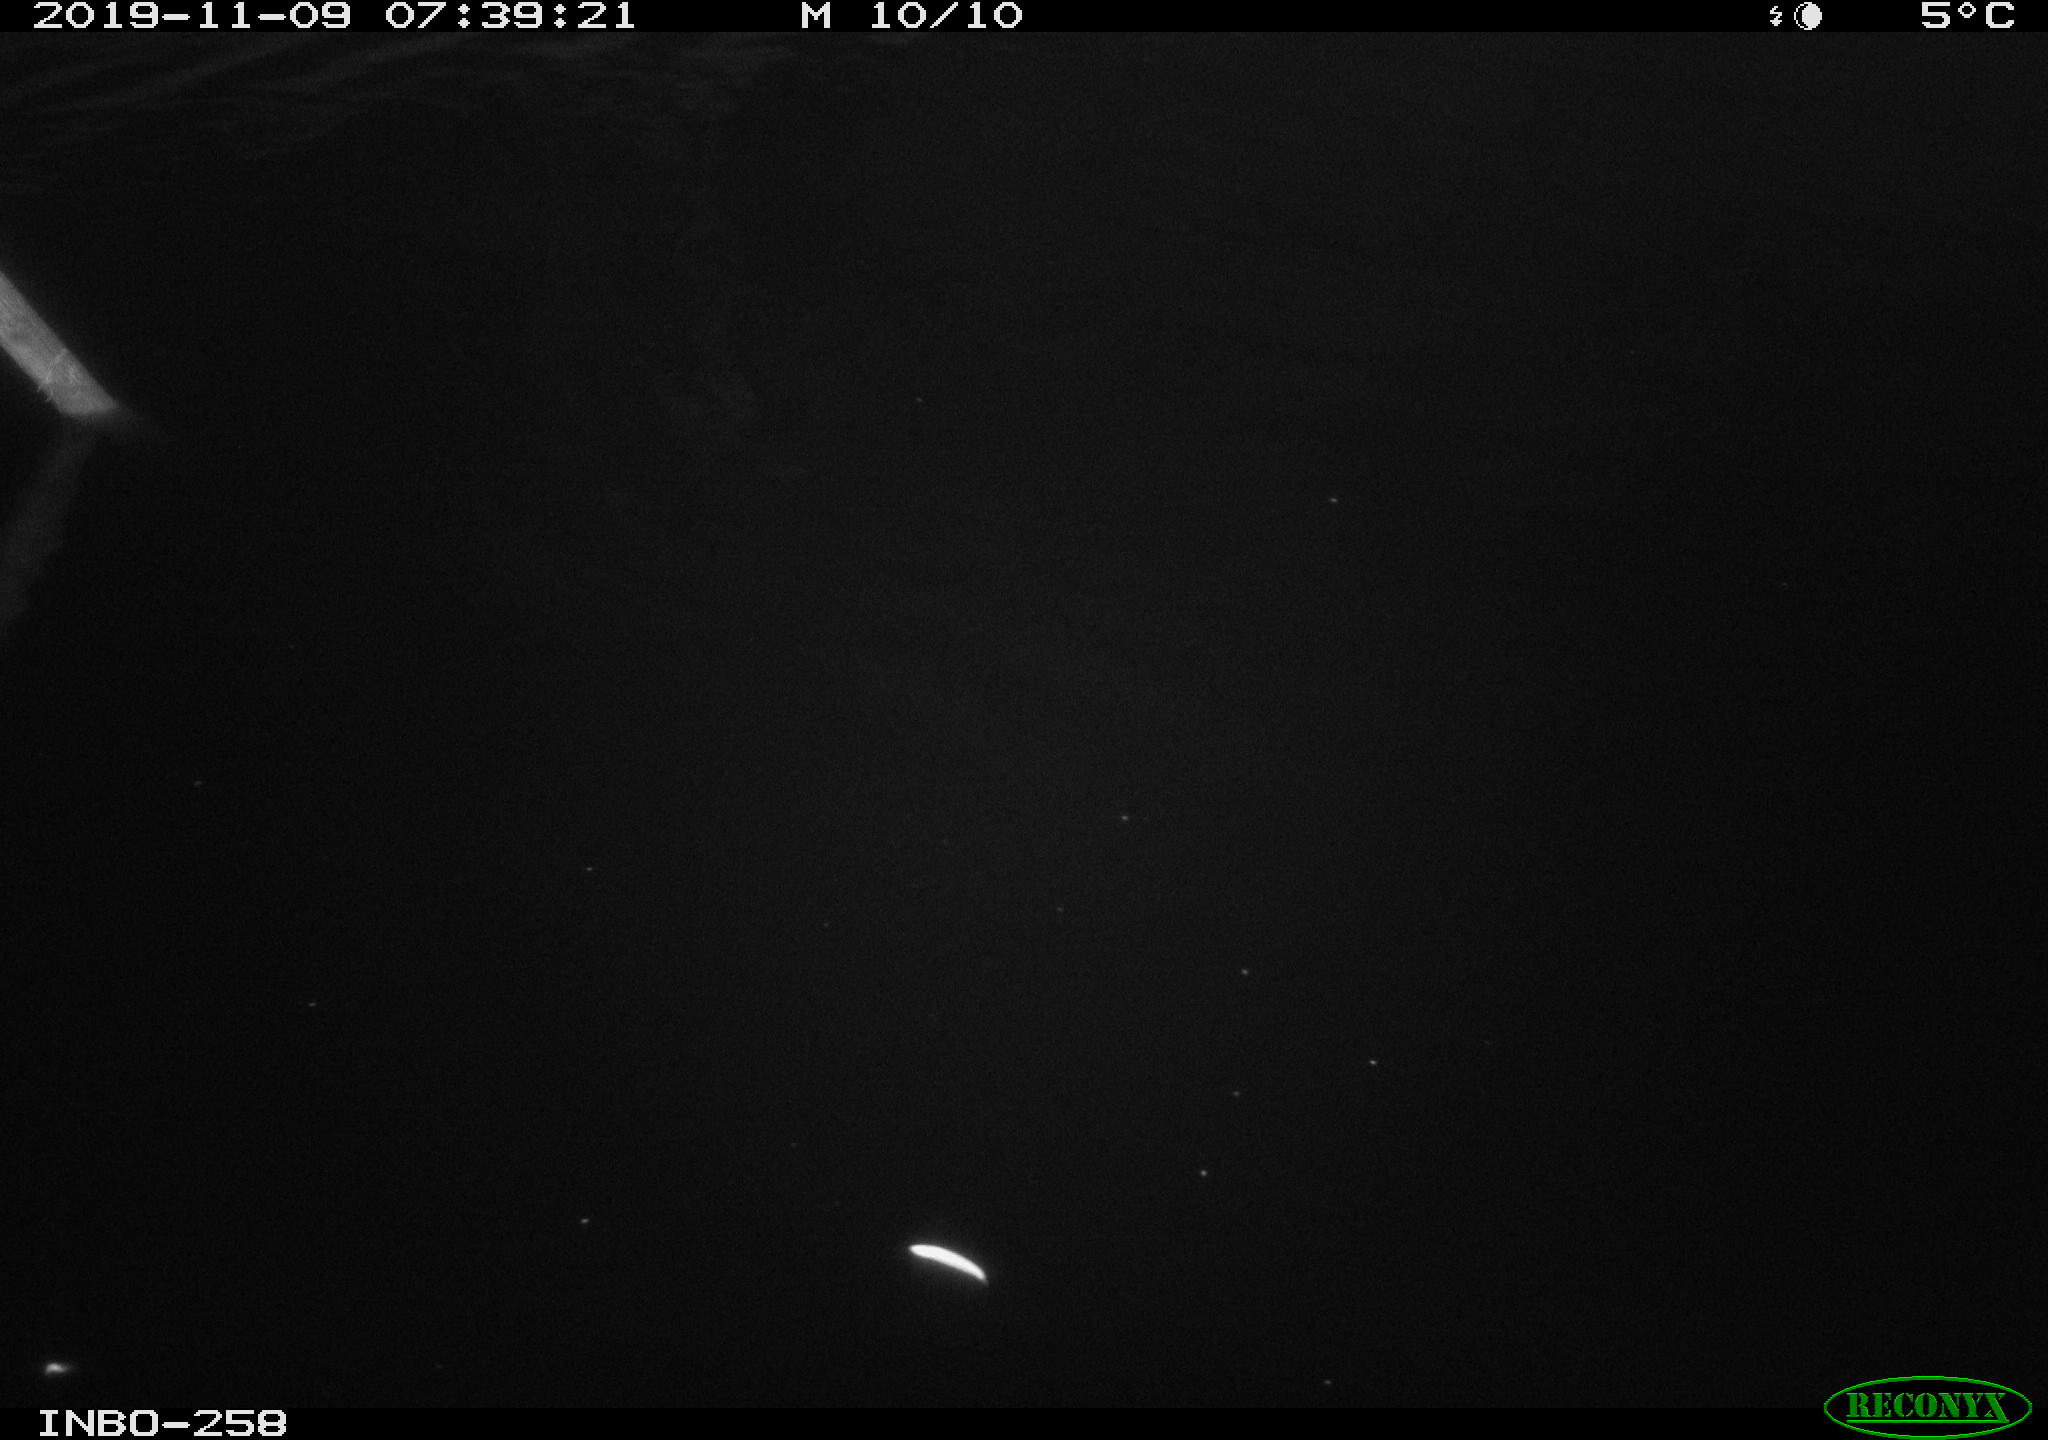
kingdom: Animalia
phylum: Chordata
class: Aves
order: Anseriformes
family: Anatidae
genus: Anas
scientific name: Anas platyrhynchos
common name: Mallard
